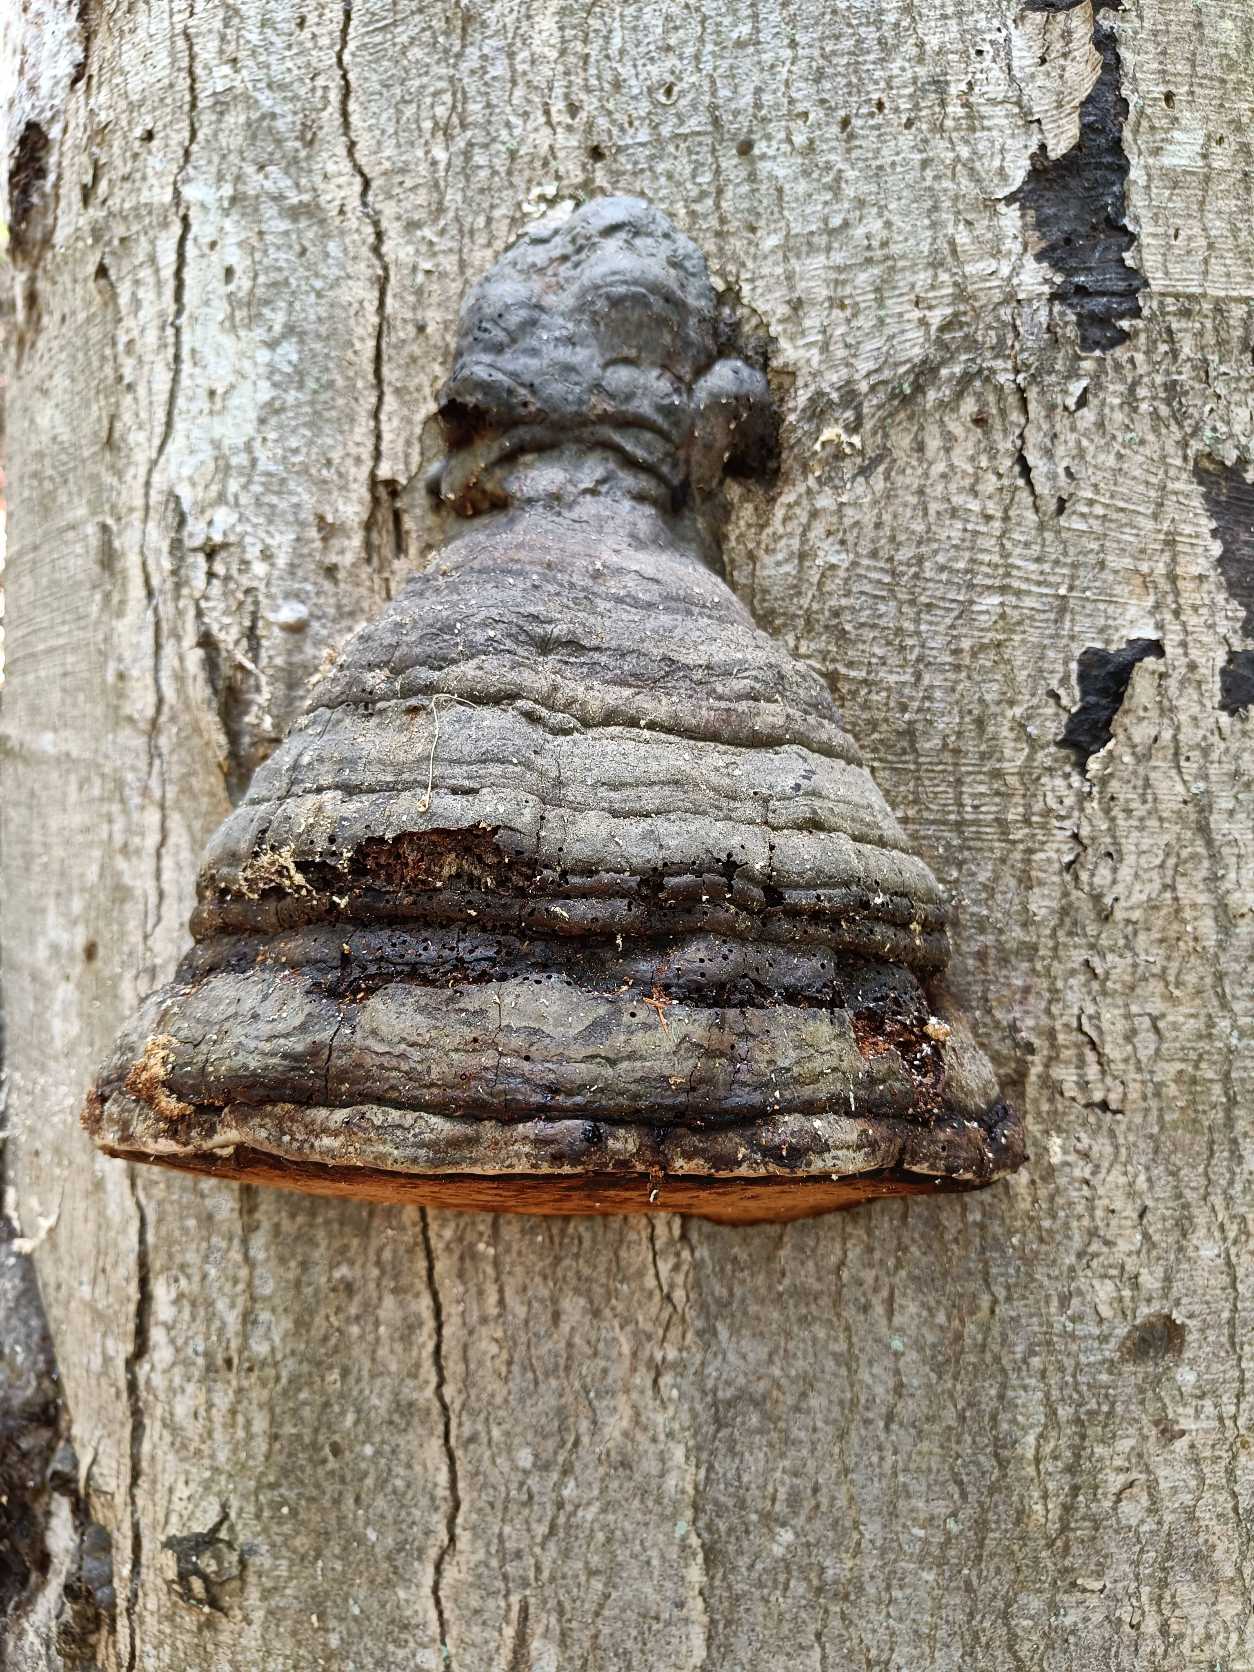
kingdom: Fungi
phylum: Basidiomycota
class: Agaricomycetes
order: Polyporales
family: Polyporaceae
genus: Fomes
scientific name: Fomes fomentarius
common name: Tøndersvamp
